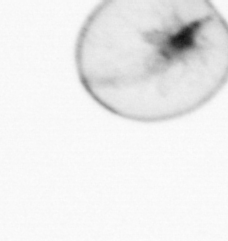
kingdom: Chromista
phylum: Myzozoa
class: Dinophyceae
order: Noctilucales
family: Noctilucaceae
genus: Noctiluca
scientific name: Noctiluca scintillans
